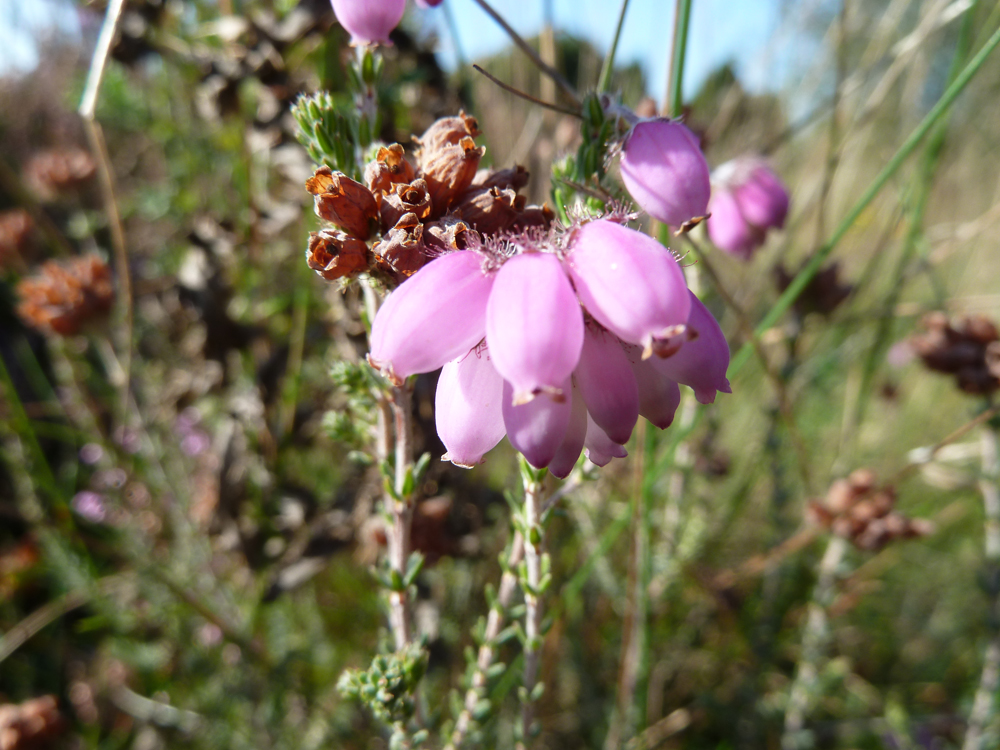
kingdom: Plantae
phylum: Tracheophyta
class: Magnoliopsida
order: Ericales
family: Ericaceae
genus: Erica
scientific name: Erica tetralix
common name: Cross-leaved heath
